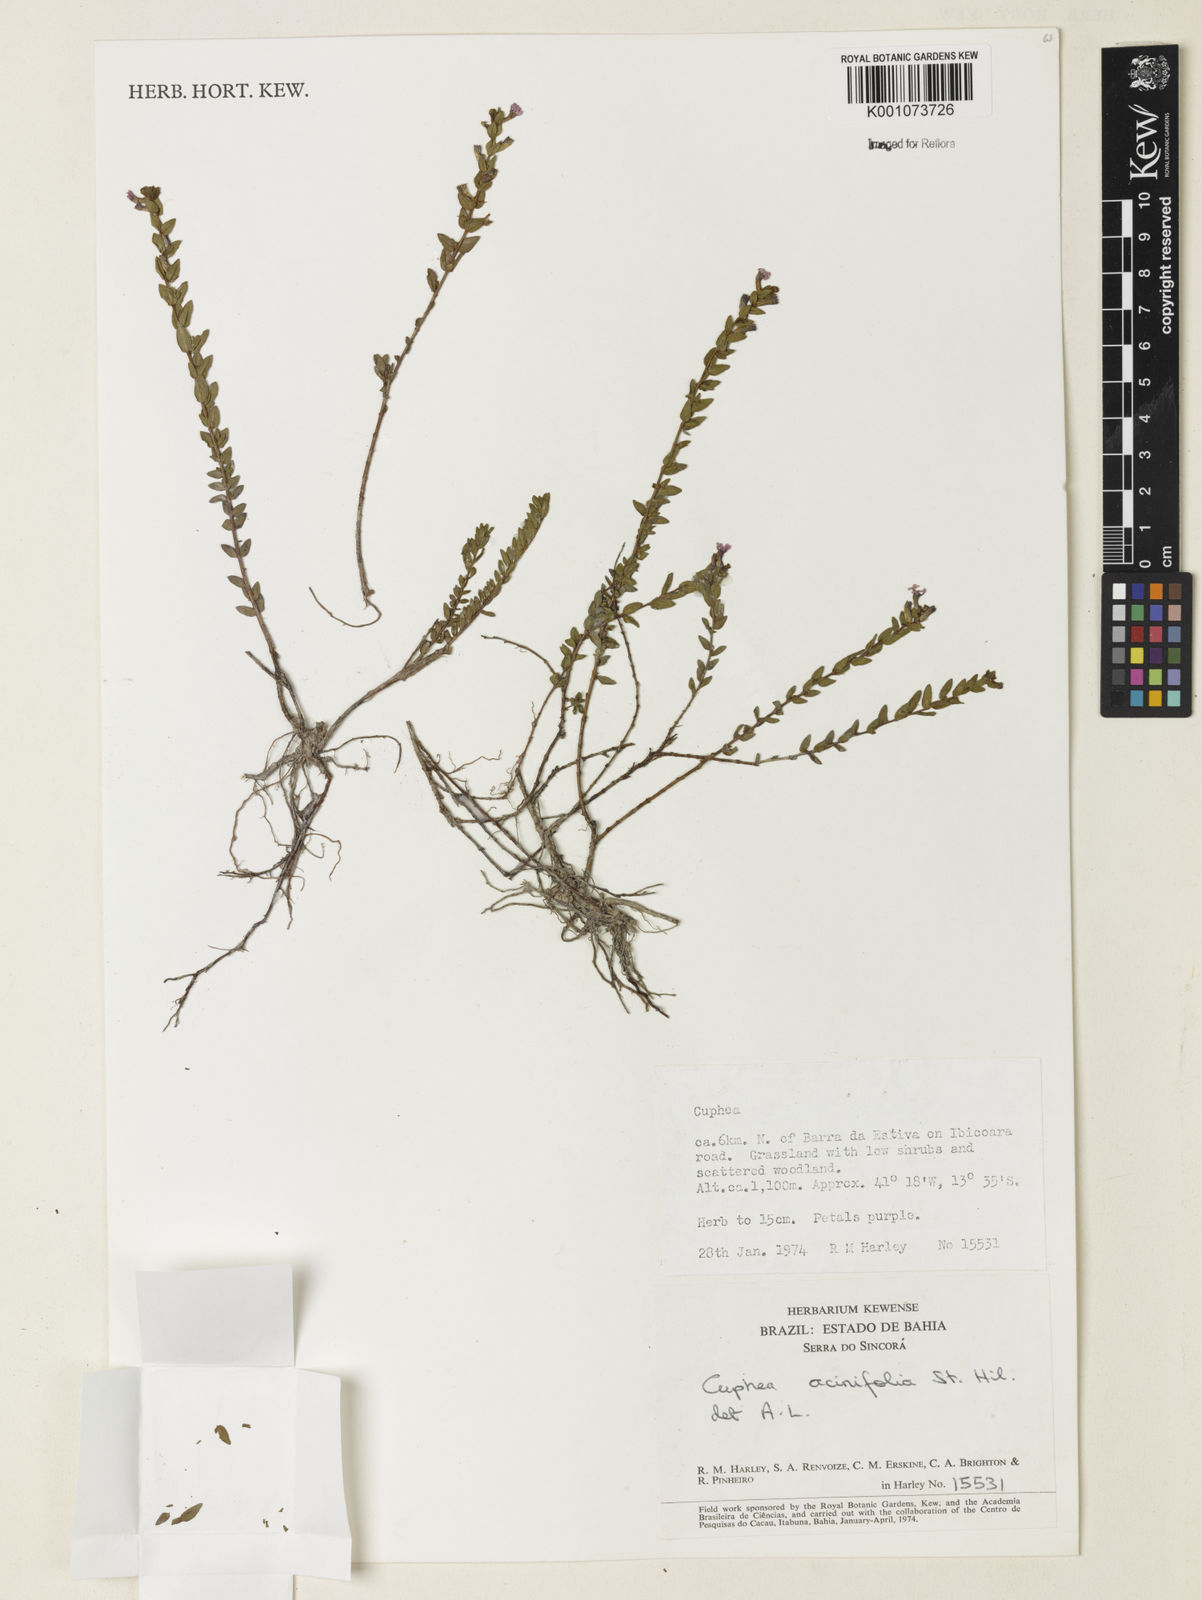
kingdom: Plantae
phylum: Tracheophyta
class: Magnoliopsida
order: Myrtales
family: Lythraceae
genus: Cuphea
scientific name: Cuphea acinifolia
